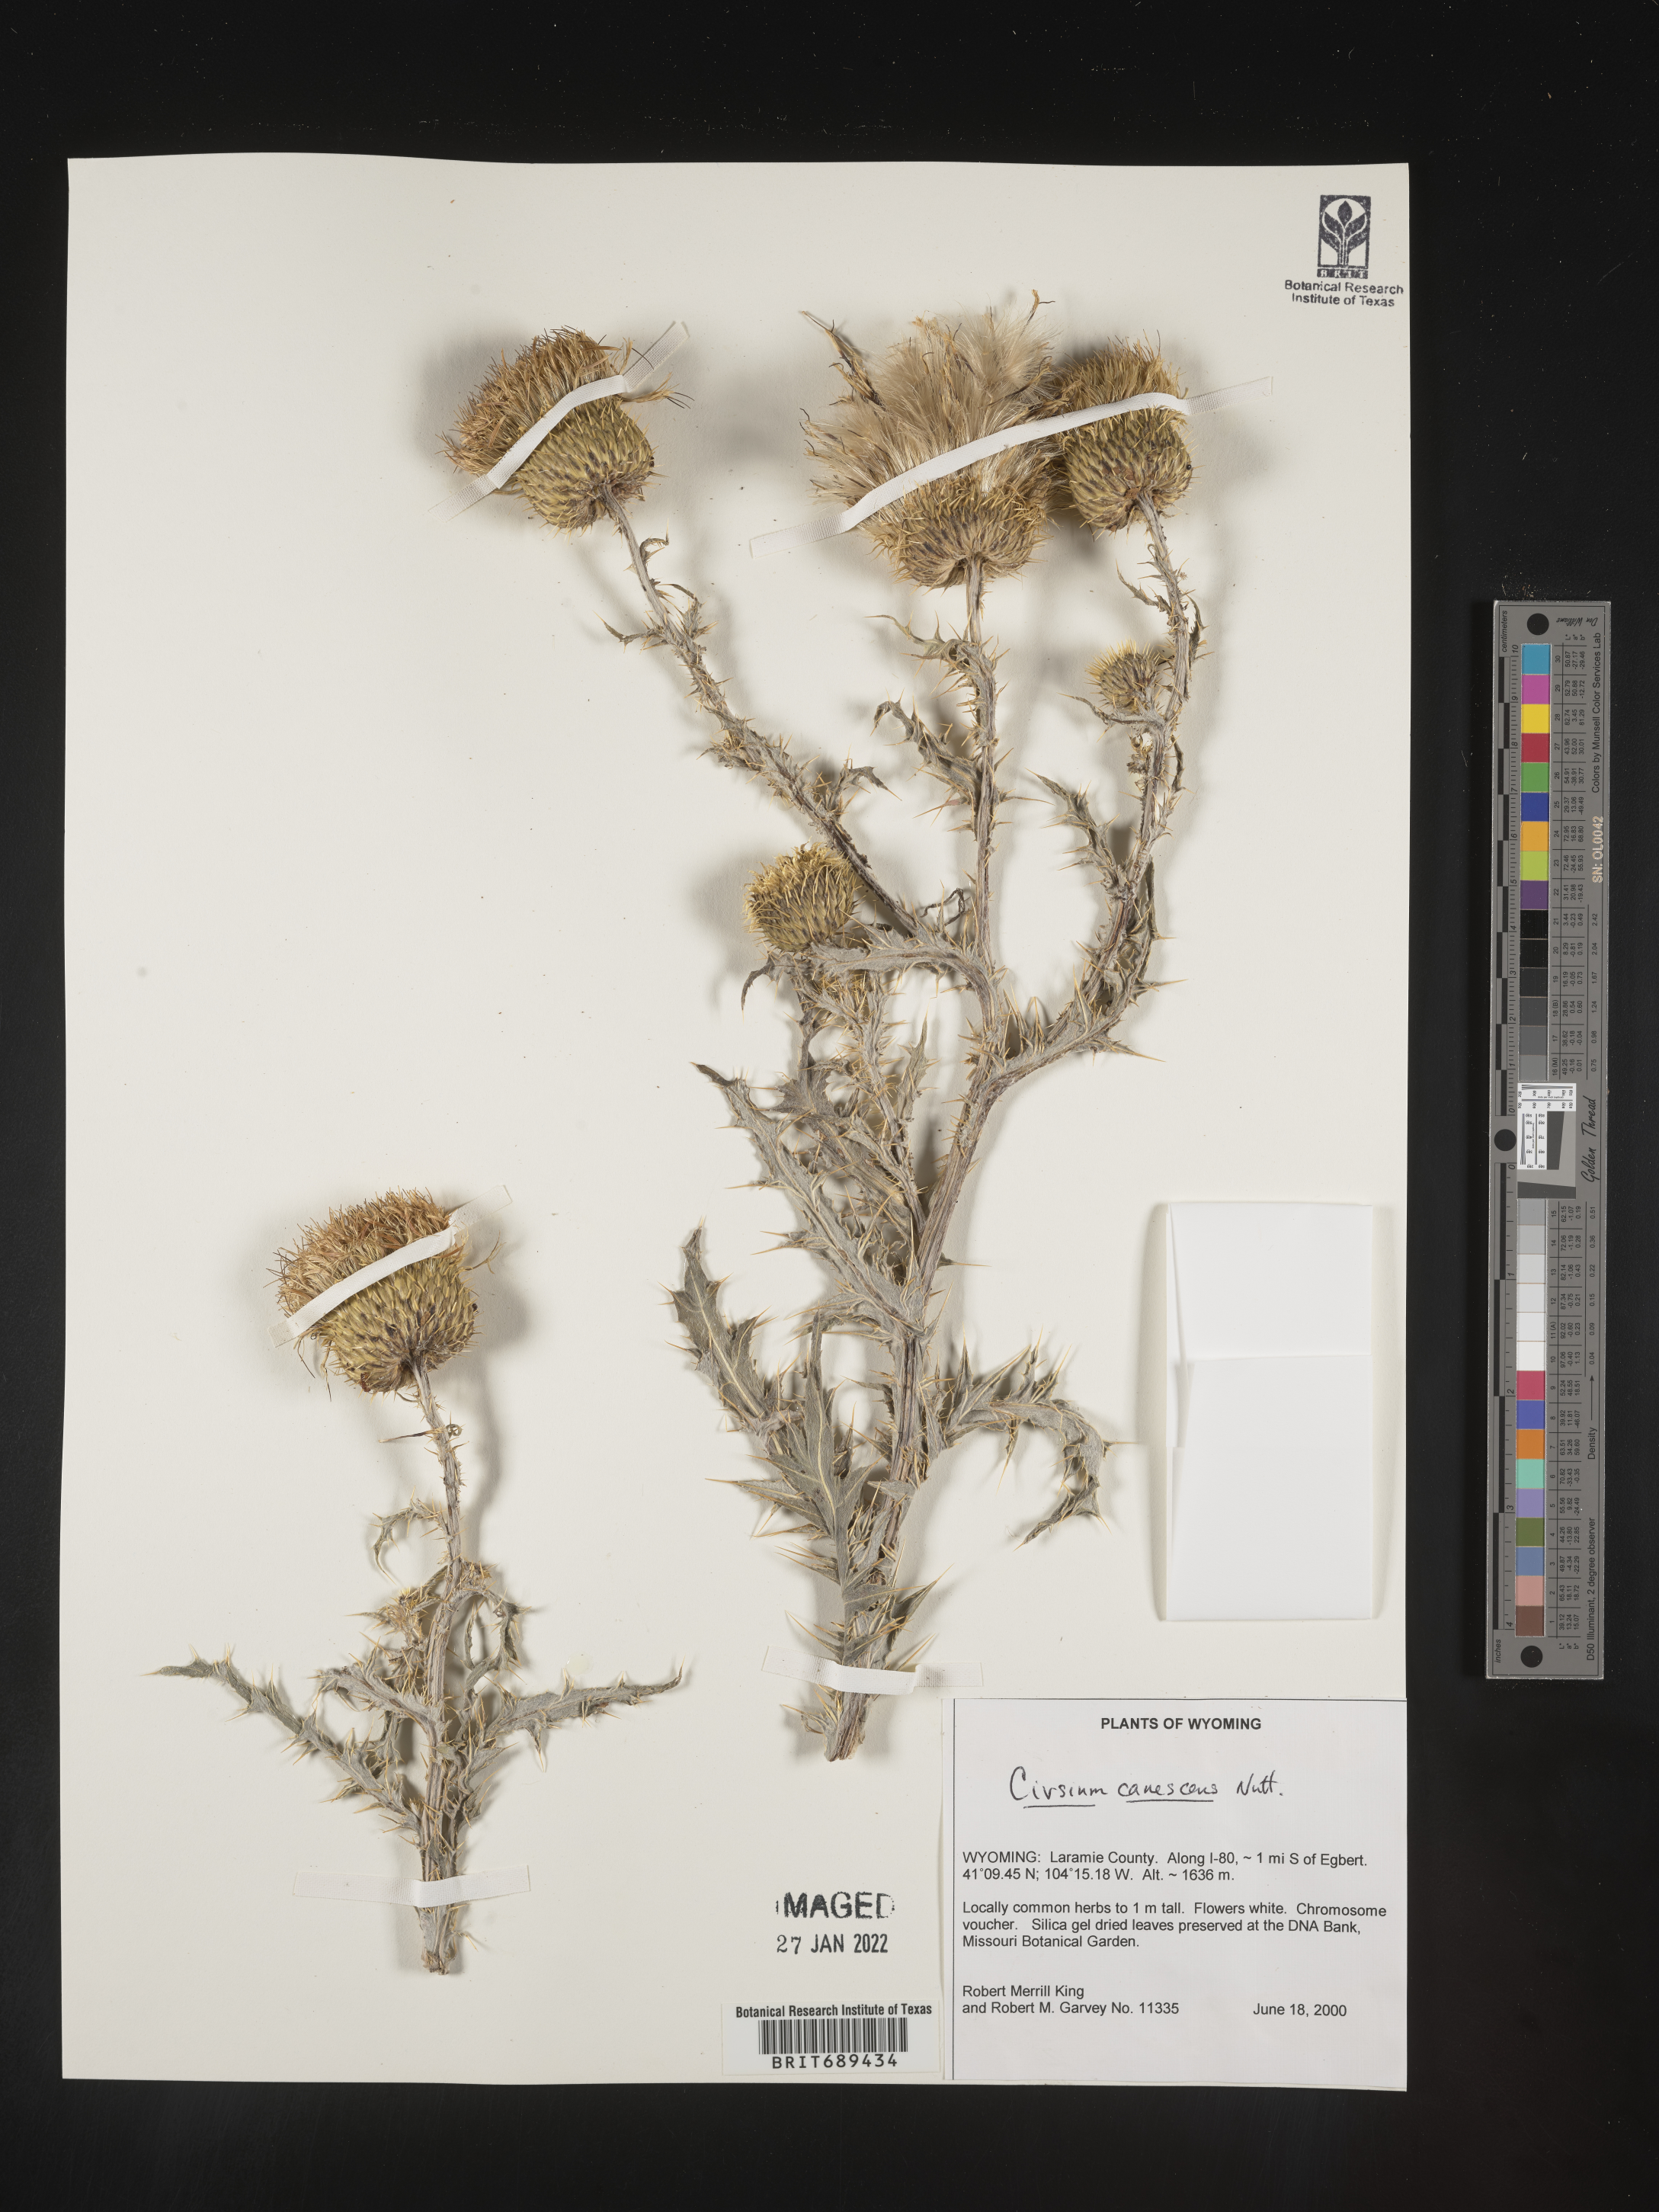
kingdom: Plantae
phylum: Tracheophyta
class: Magnoliopsida
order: Asterales
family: Asteraceae
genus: Cirsium
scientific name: Cirsium canescens
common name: Prairie thistle
